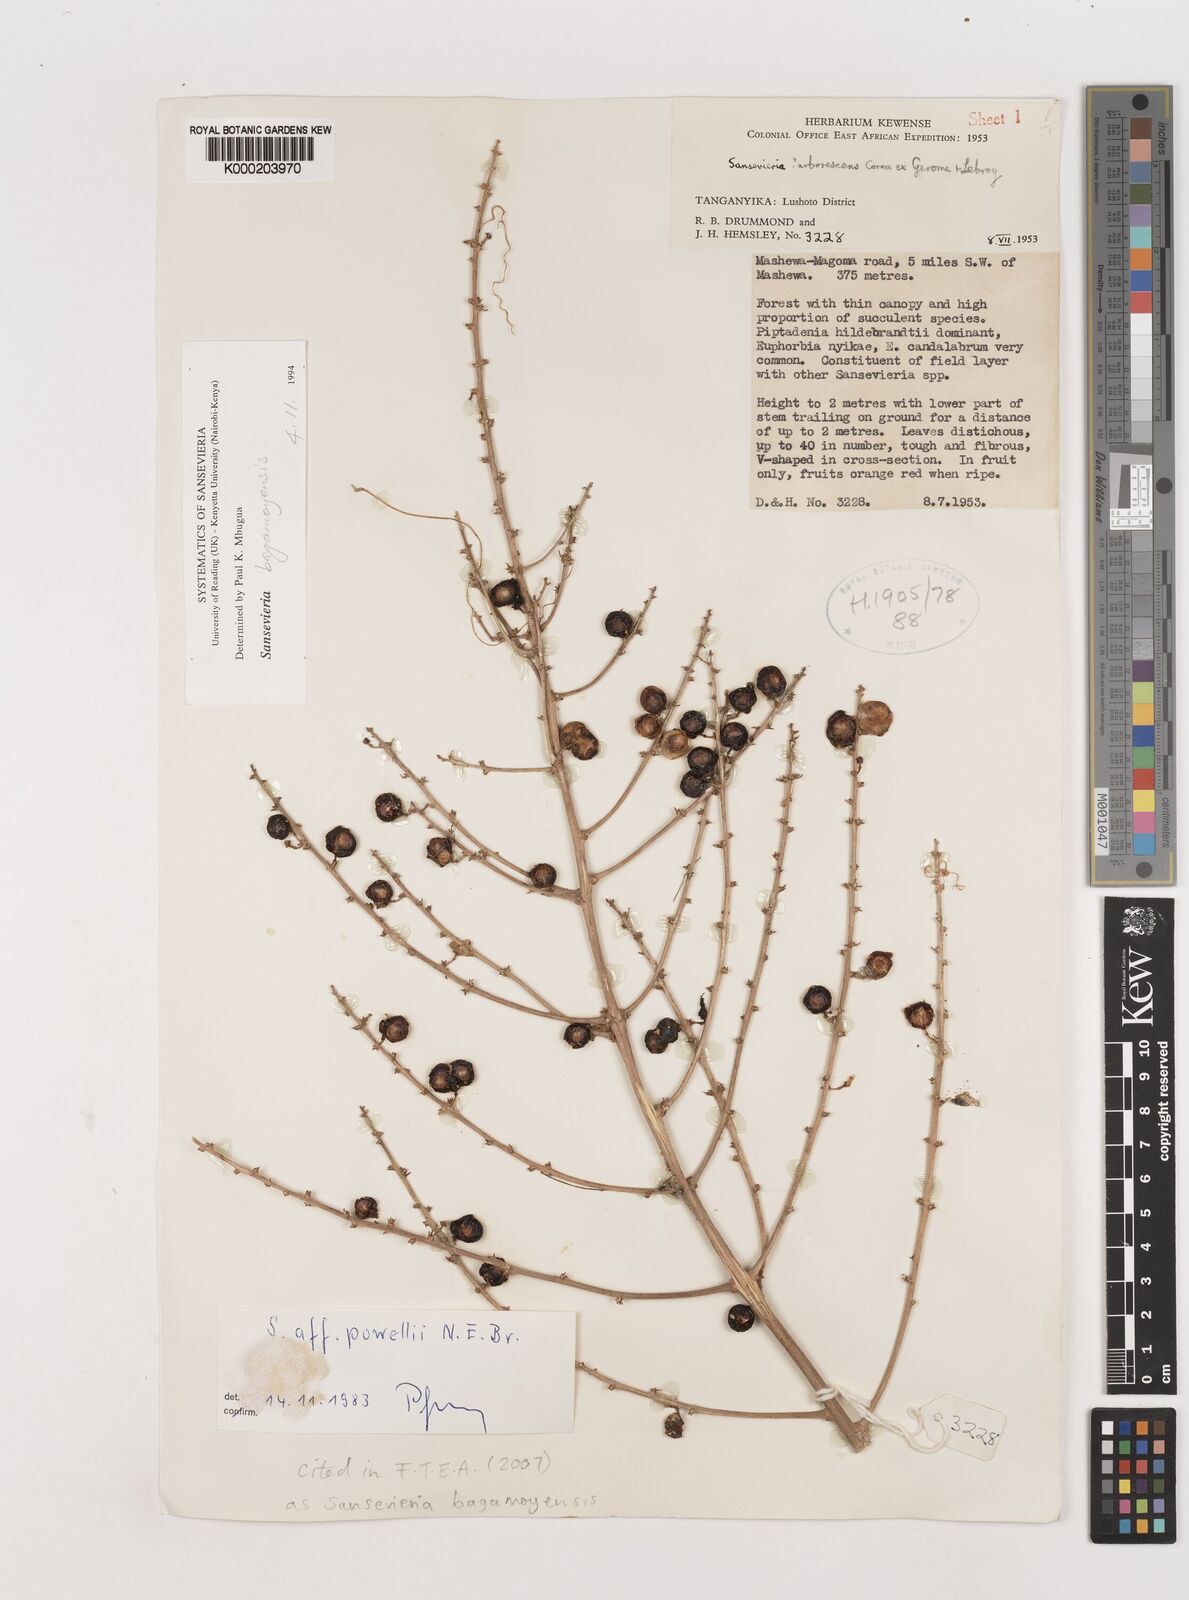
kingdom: Plantae
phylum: Tracheophyta
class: Liliopsida
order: Asparagales
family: Asparagaceae
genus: Dracaena
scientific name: Dracaena ascendens
